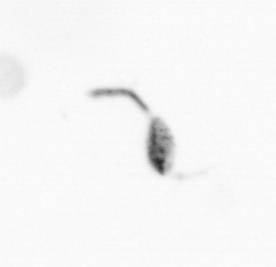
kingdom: Animalia
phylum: Arthropoda
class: Copepoda
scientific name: Copepoda
